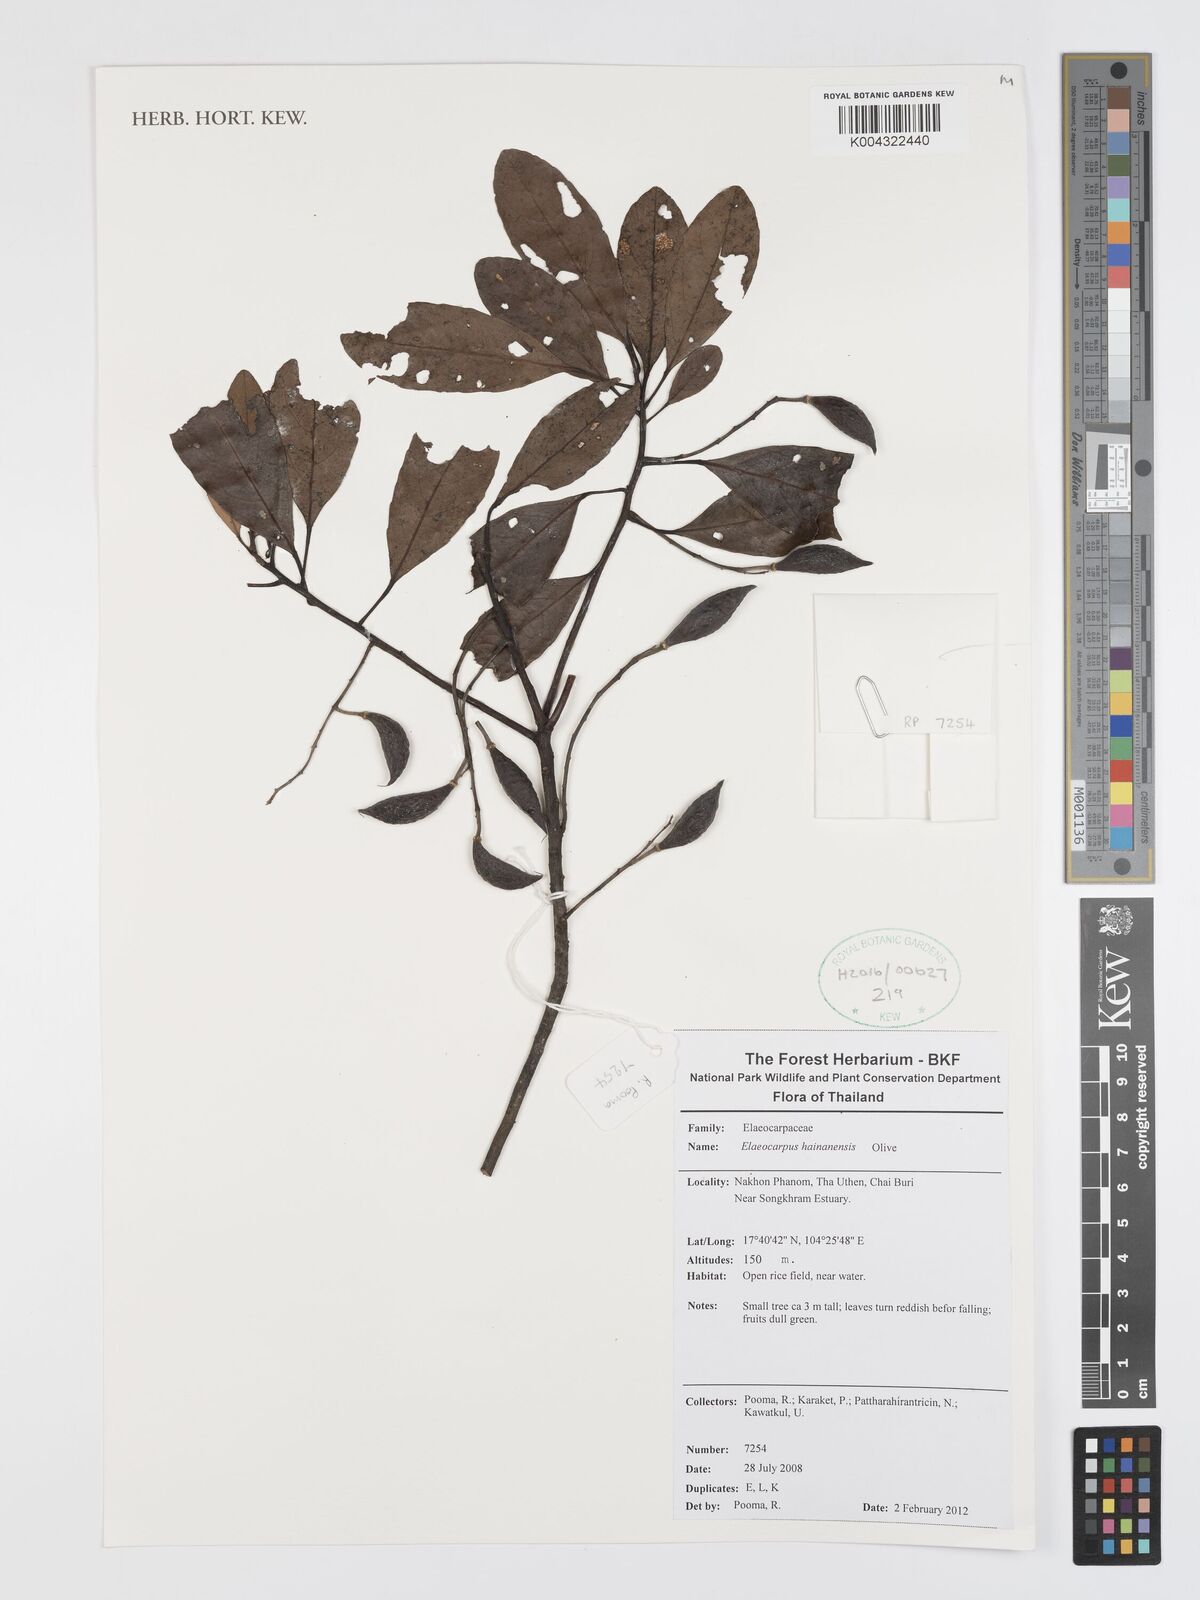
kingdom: Plantae
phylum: Tracheophyta
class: Magnoliopsida
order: Oxalidales
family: Elaeocarpaceae
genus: Elaeocarpus
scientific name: Elaeocarpus hainanensis
